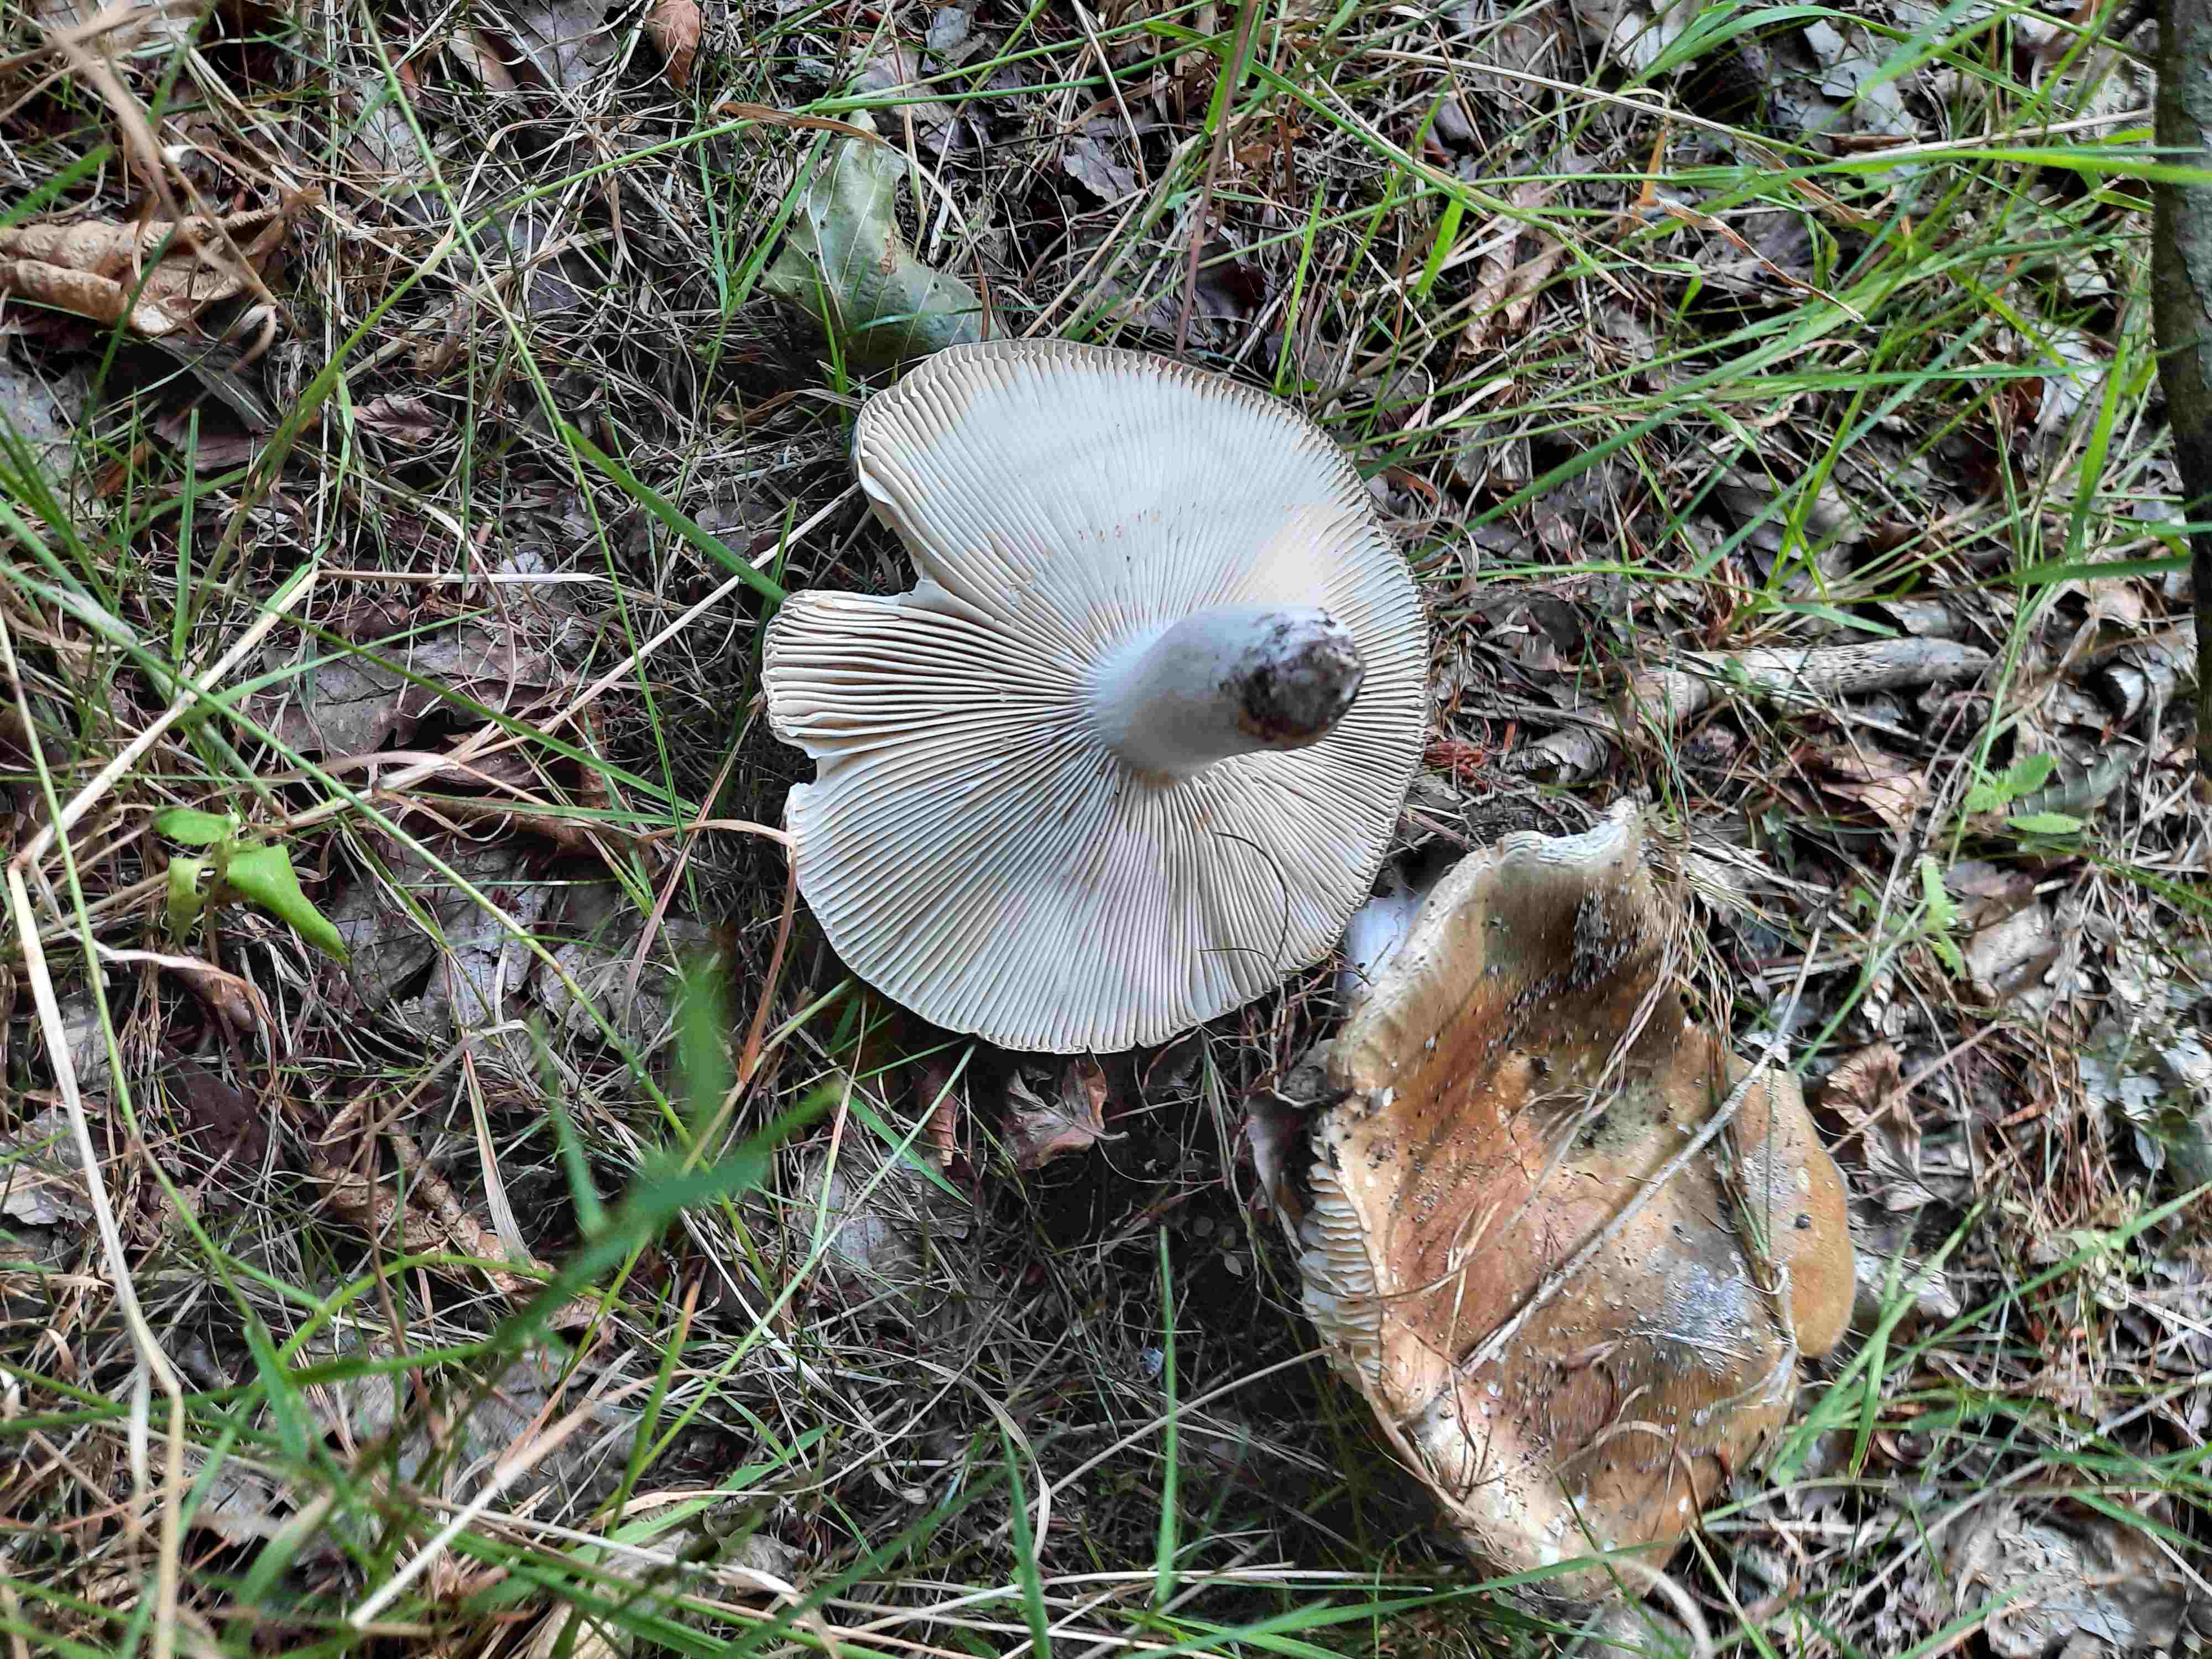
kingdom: Fungi
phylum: Basidiomycota
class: Agaricomycetes
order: Russulales
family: Russulaceae
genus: Russula
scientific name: Russula heterophylla
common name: gaffelbladet skørhat
